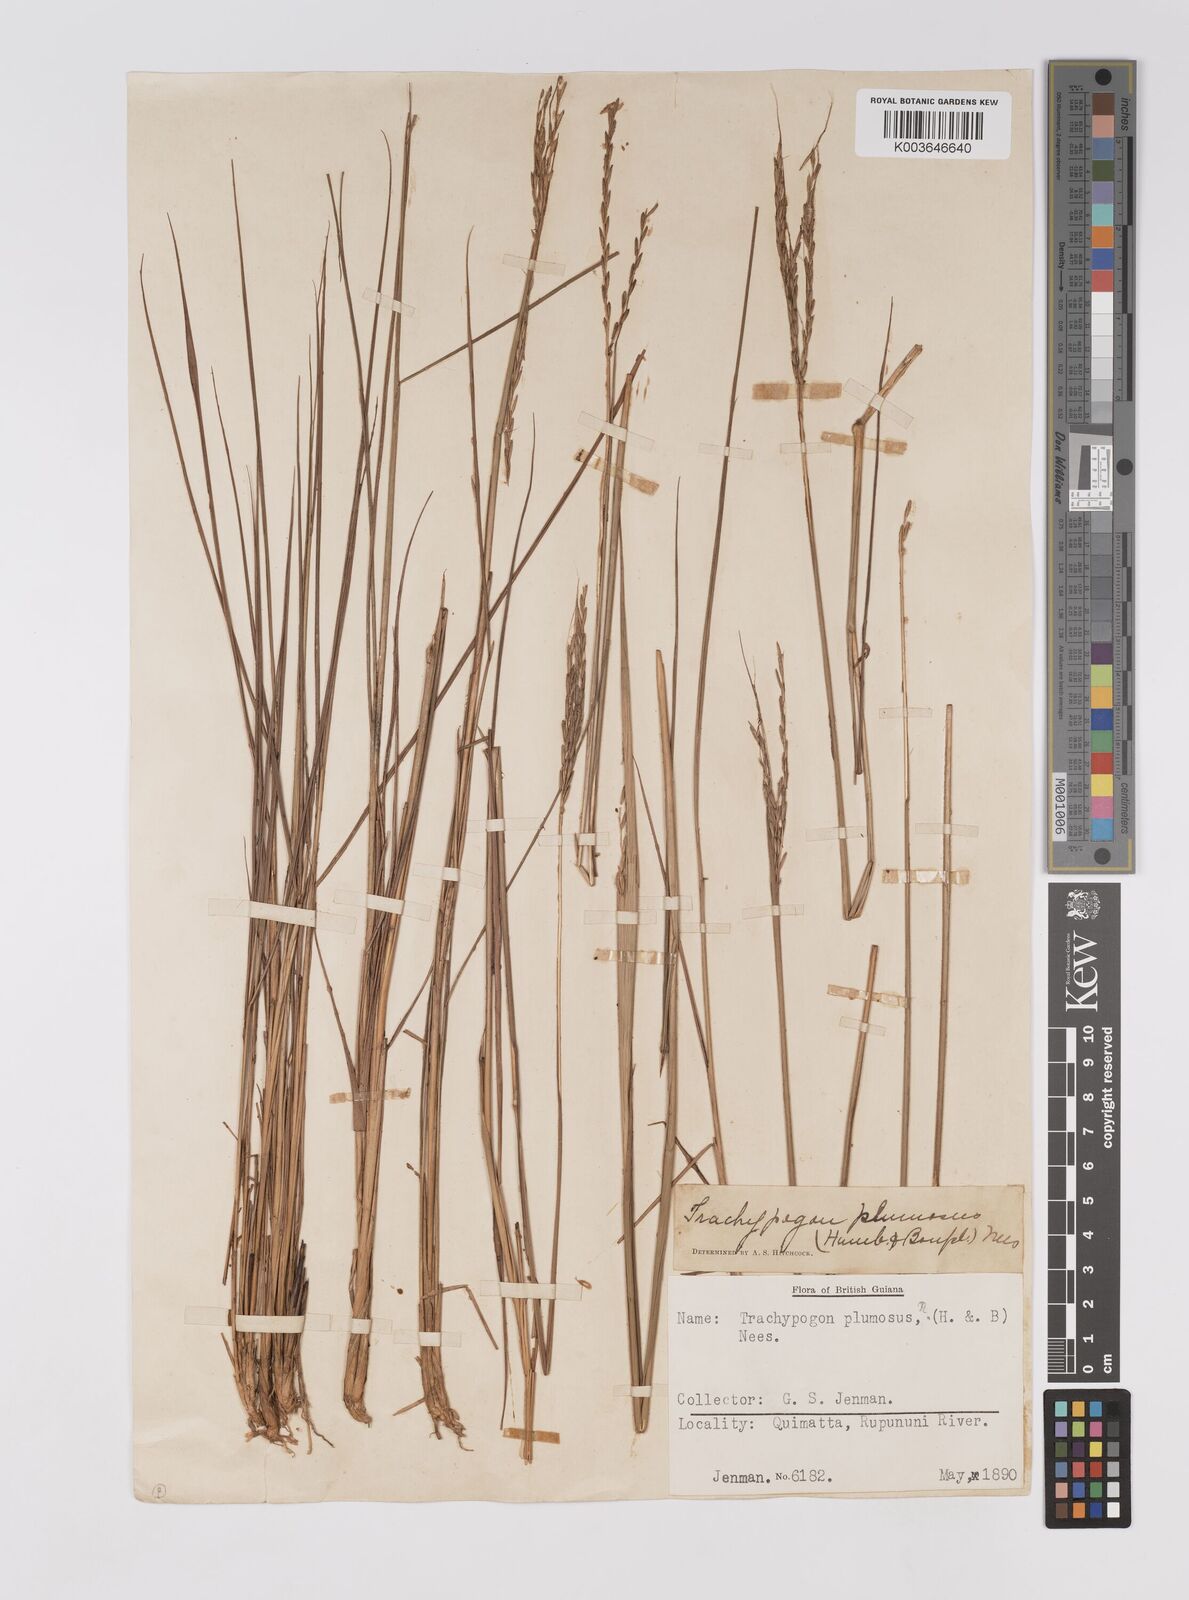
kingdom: Plantae
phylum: Tracheophyta
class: Liliopsida
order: Poales
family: Poaceae
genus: Trachypogon
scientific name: Trachypogon spicatus
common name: Crinkle-awn
